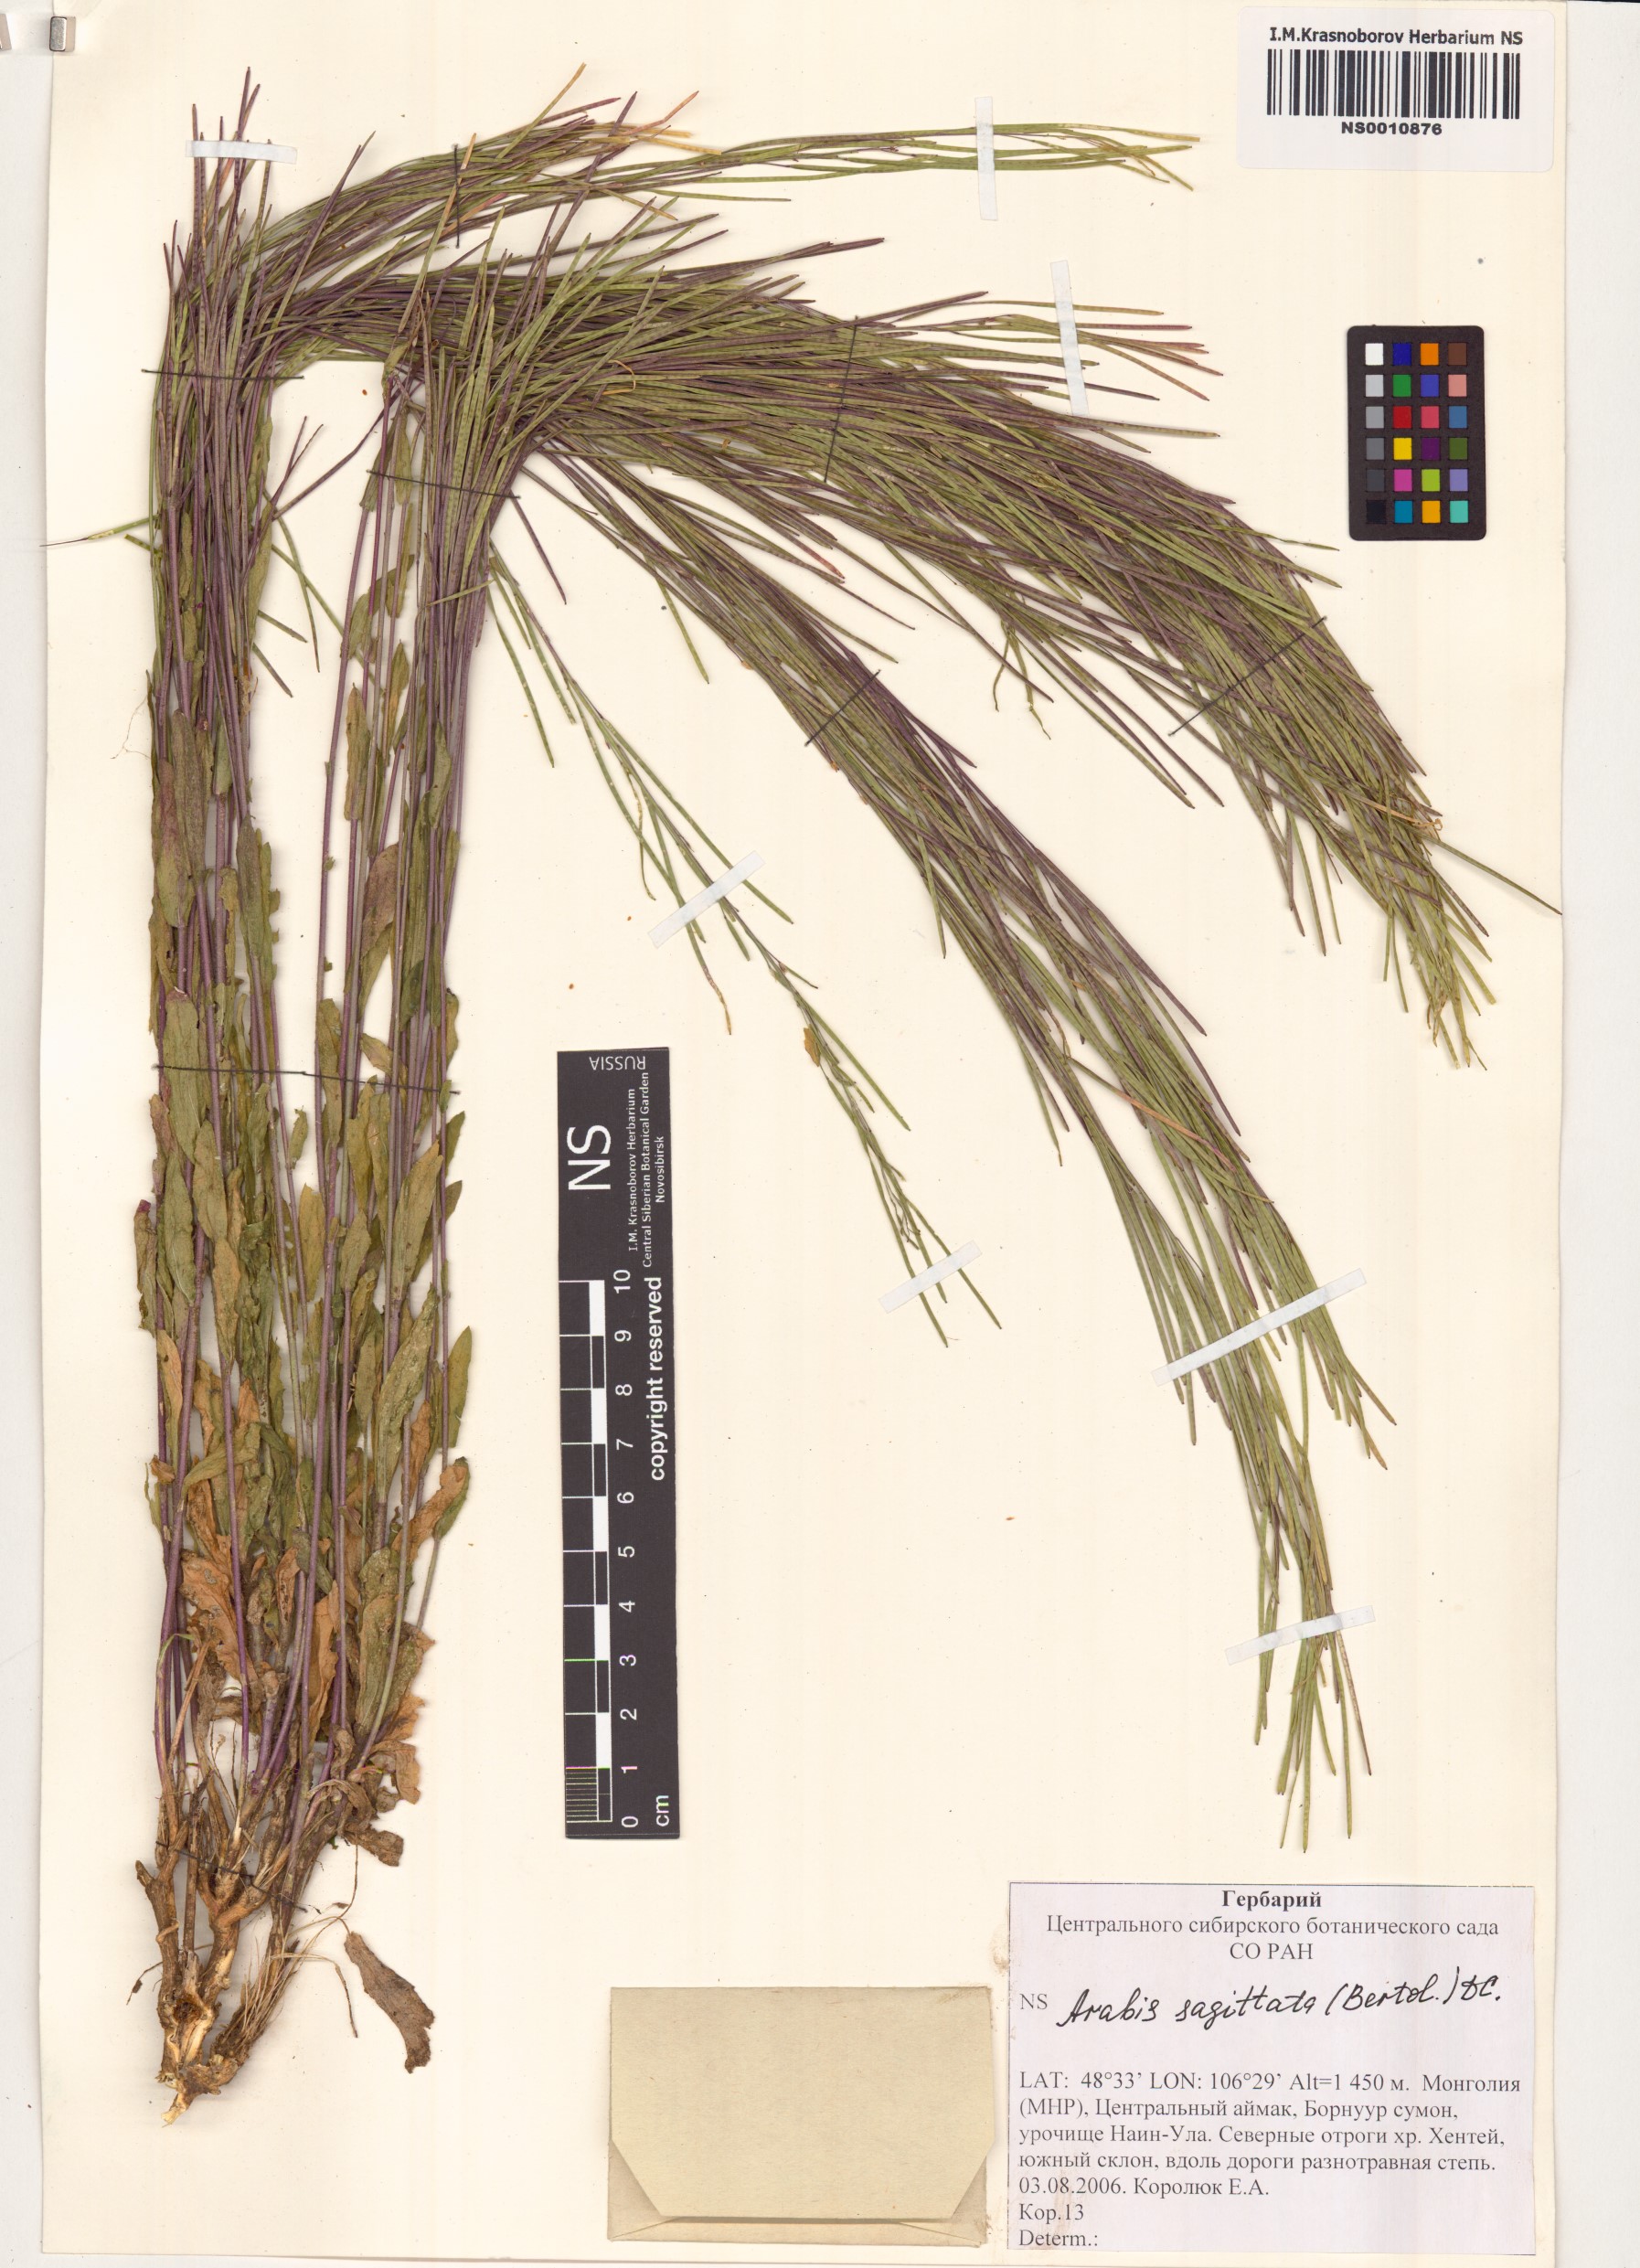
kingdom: Plantae
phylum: Tracheophyta
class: Magnoliopsida
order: Brassicales
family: Brassicaceae
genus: Arabis
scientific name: Arabis sagittata
